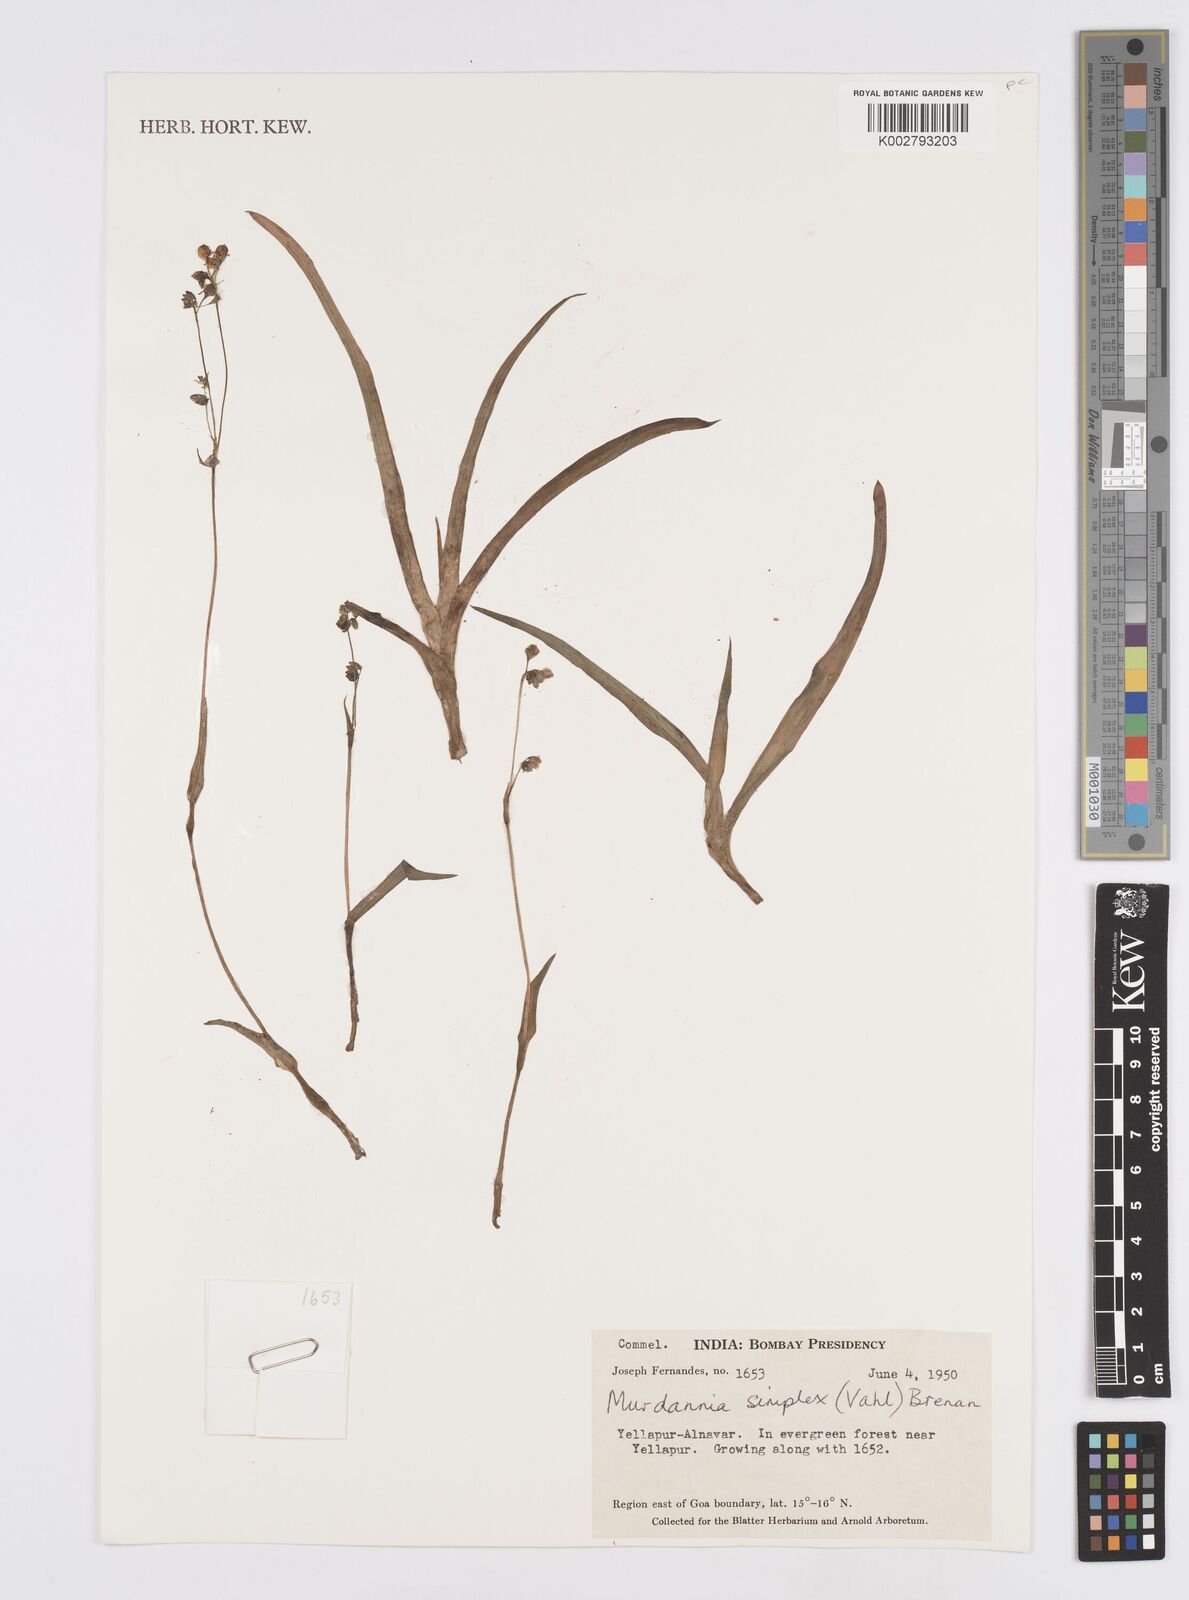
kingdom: Plantae
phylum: Tracheophyta
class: Liliopsida
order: Commelinales
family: Commelinaceae
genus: Murdannia
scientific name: Murdannia simplex
